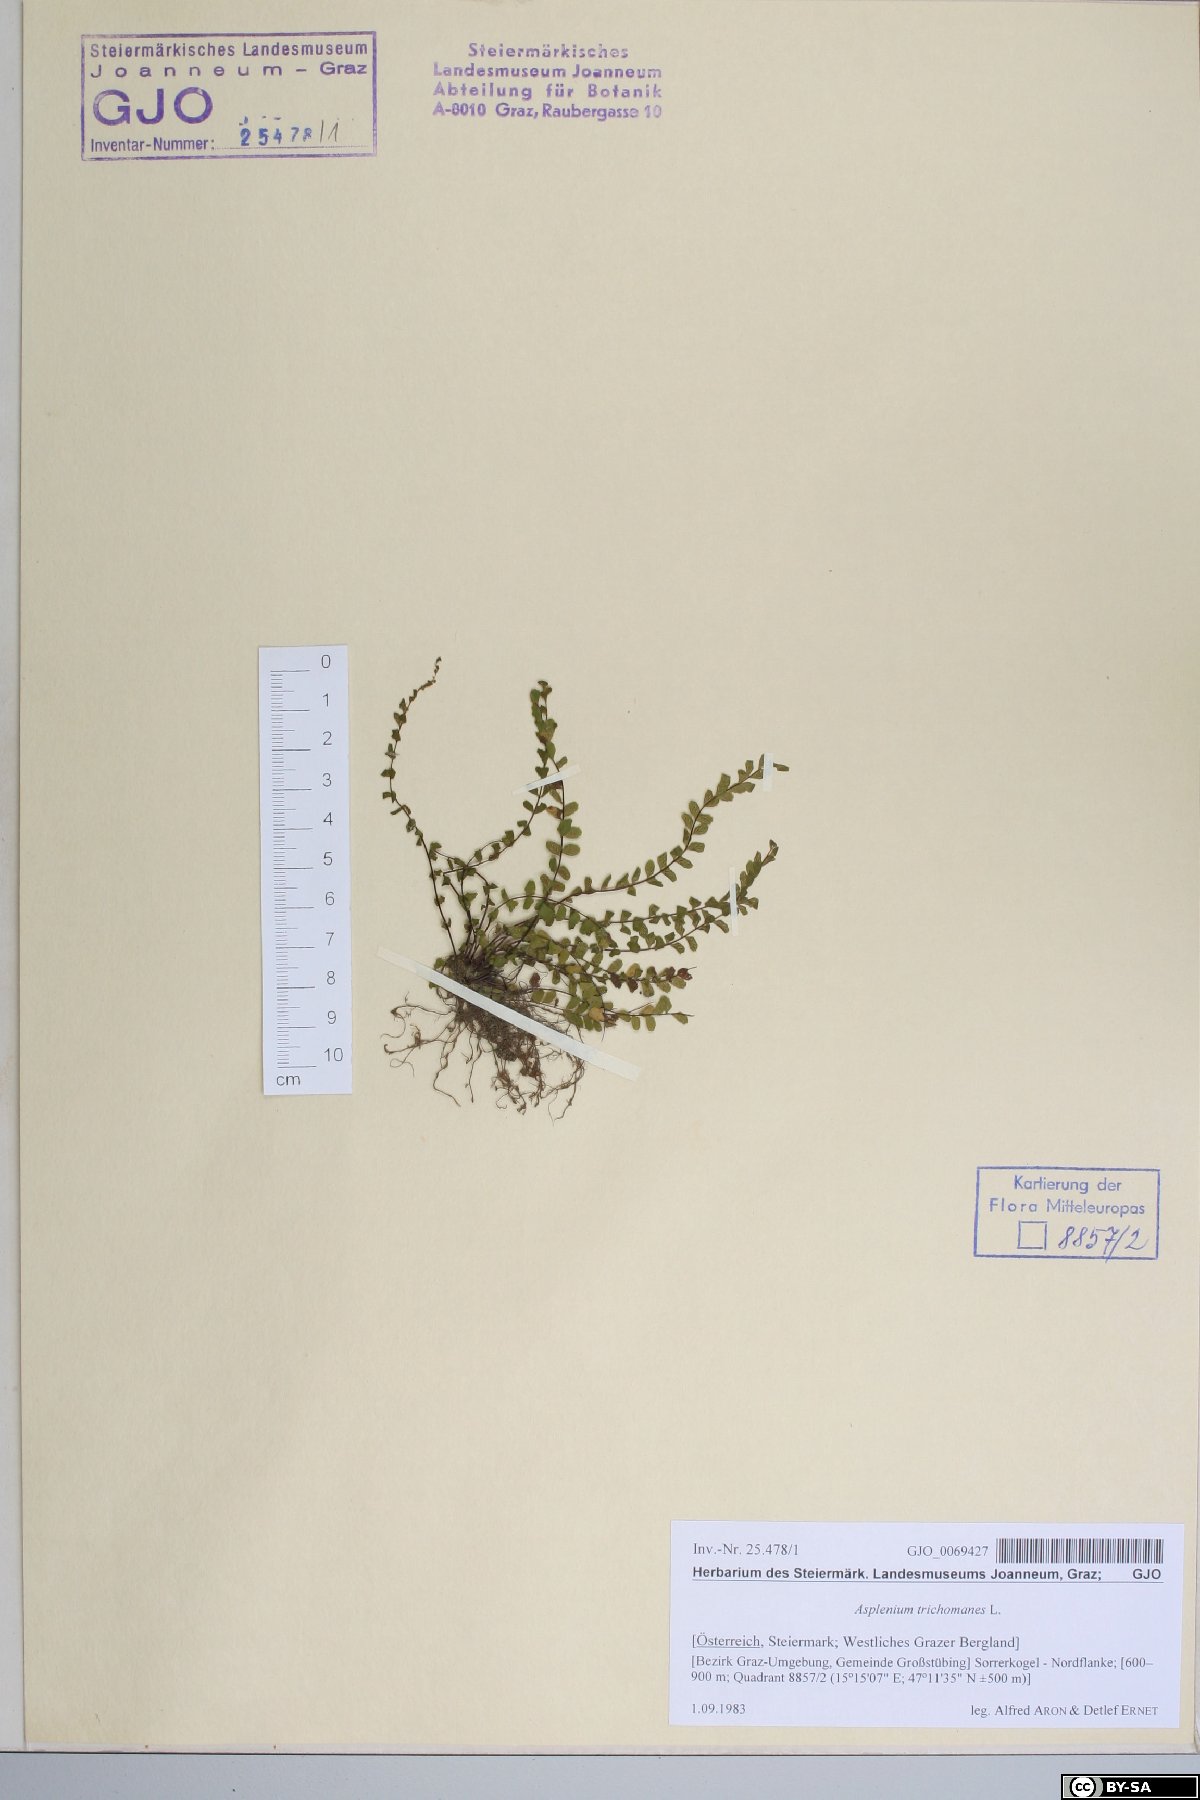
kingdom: Plantae
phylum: Tracheophyta
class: Polypodiopsida
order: Polypodiales
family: Aspleniaceae
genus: Asplenium
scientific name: Asplenium trichomanes
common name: Maidenhair spleenwort
